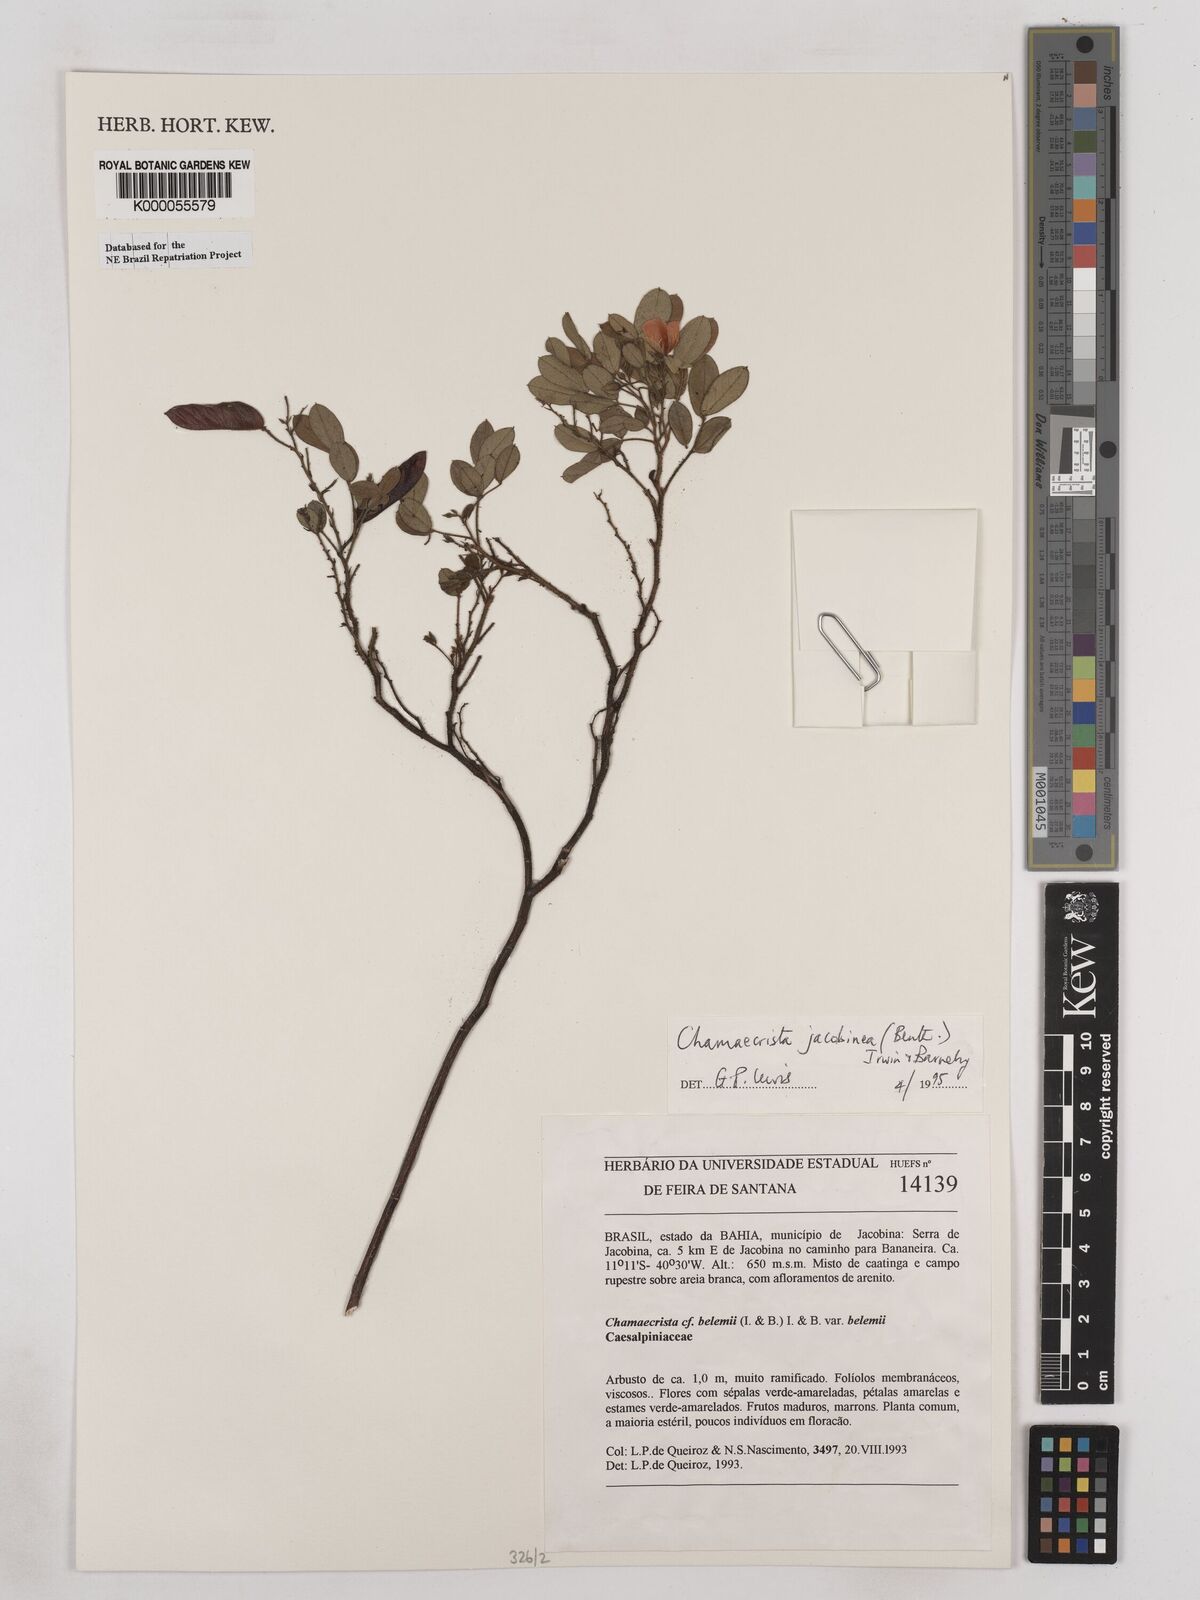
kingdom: Plantae
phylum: Tracheophyta
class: Magnoliopsida
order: Fabales
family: Fabaceae
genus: Chamaecrista
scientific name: Chamaecrista jacobinea
